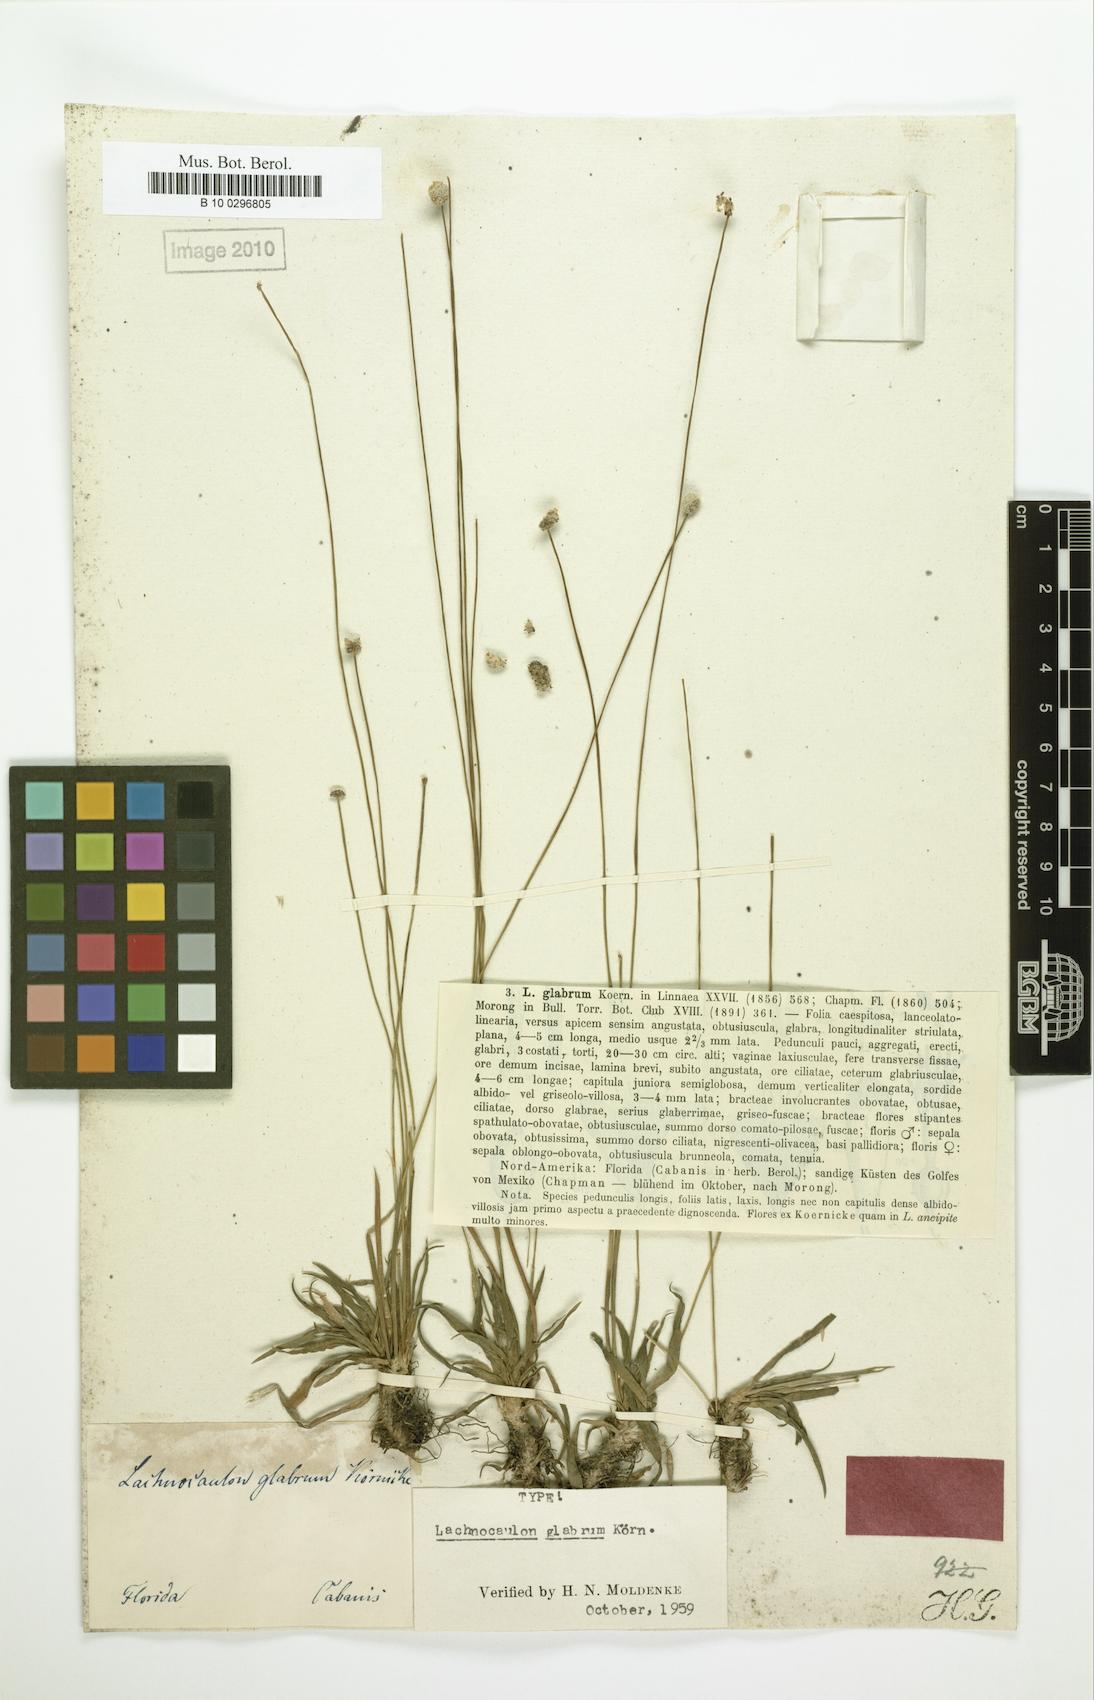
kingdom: Plantae
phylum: Tracheophyta
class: Liliopsida
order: Poales
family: Eriocaulaceae
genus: Paepalanthus
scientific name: Paepalanthus anceps
